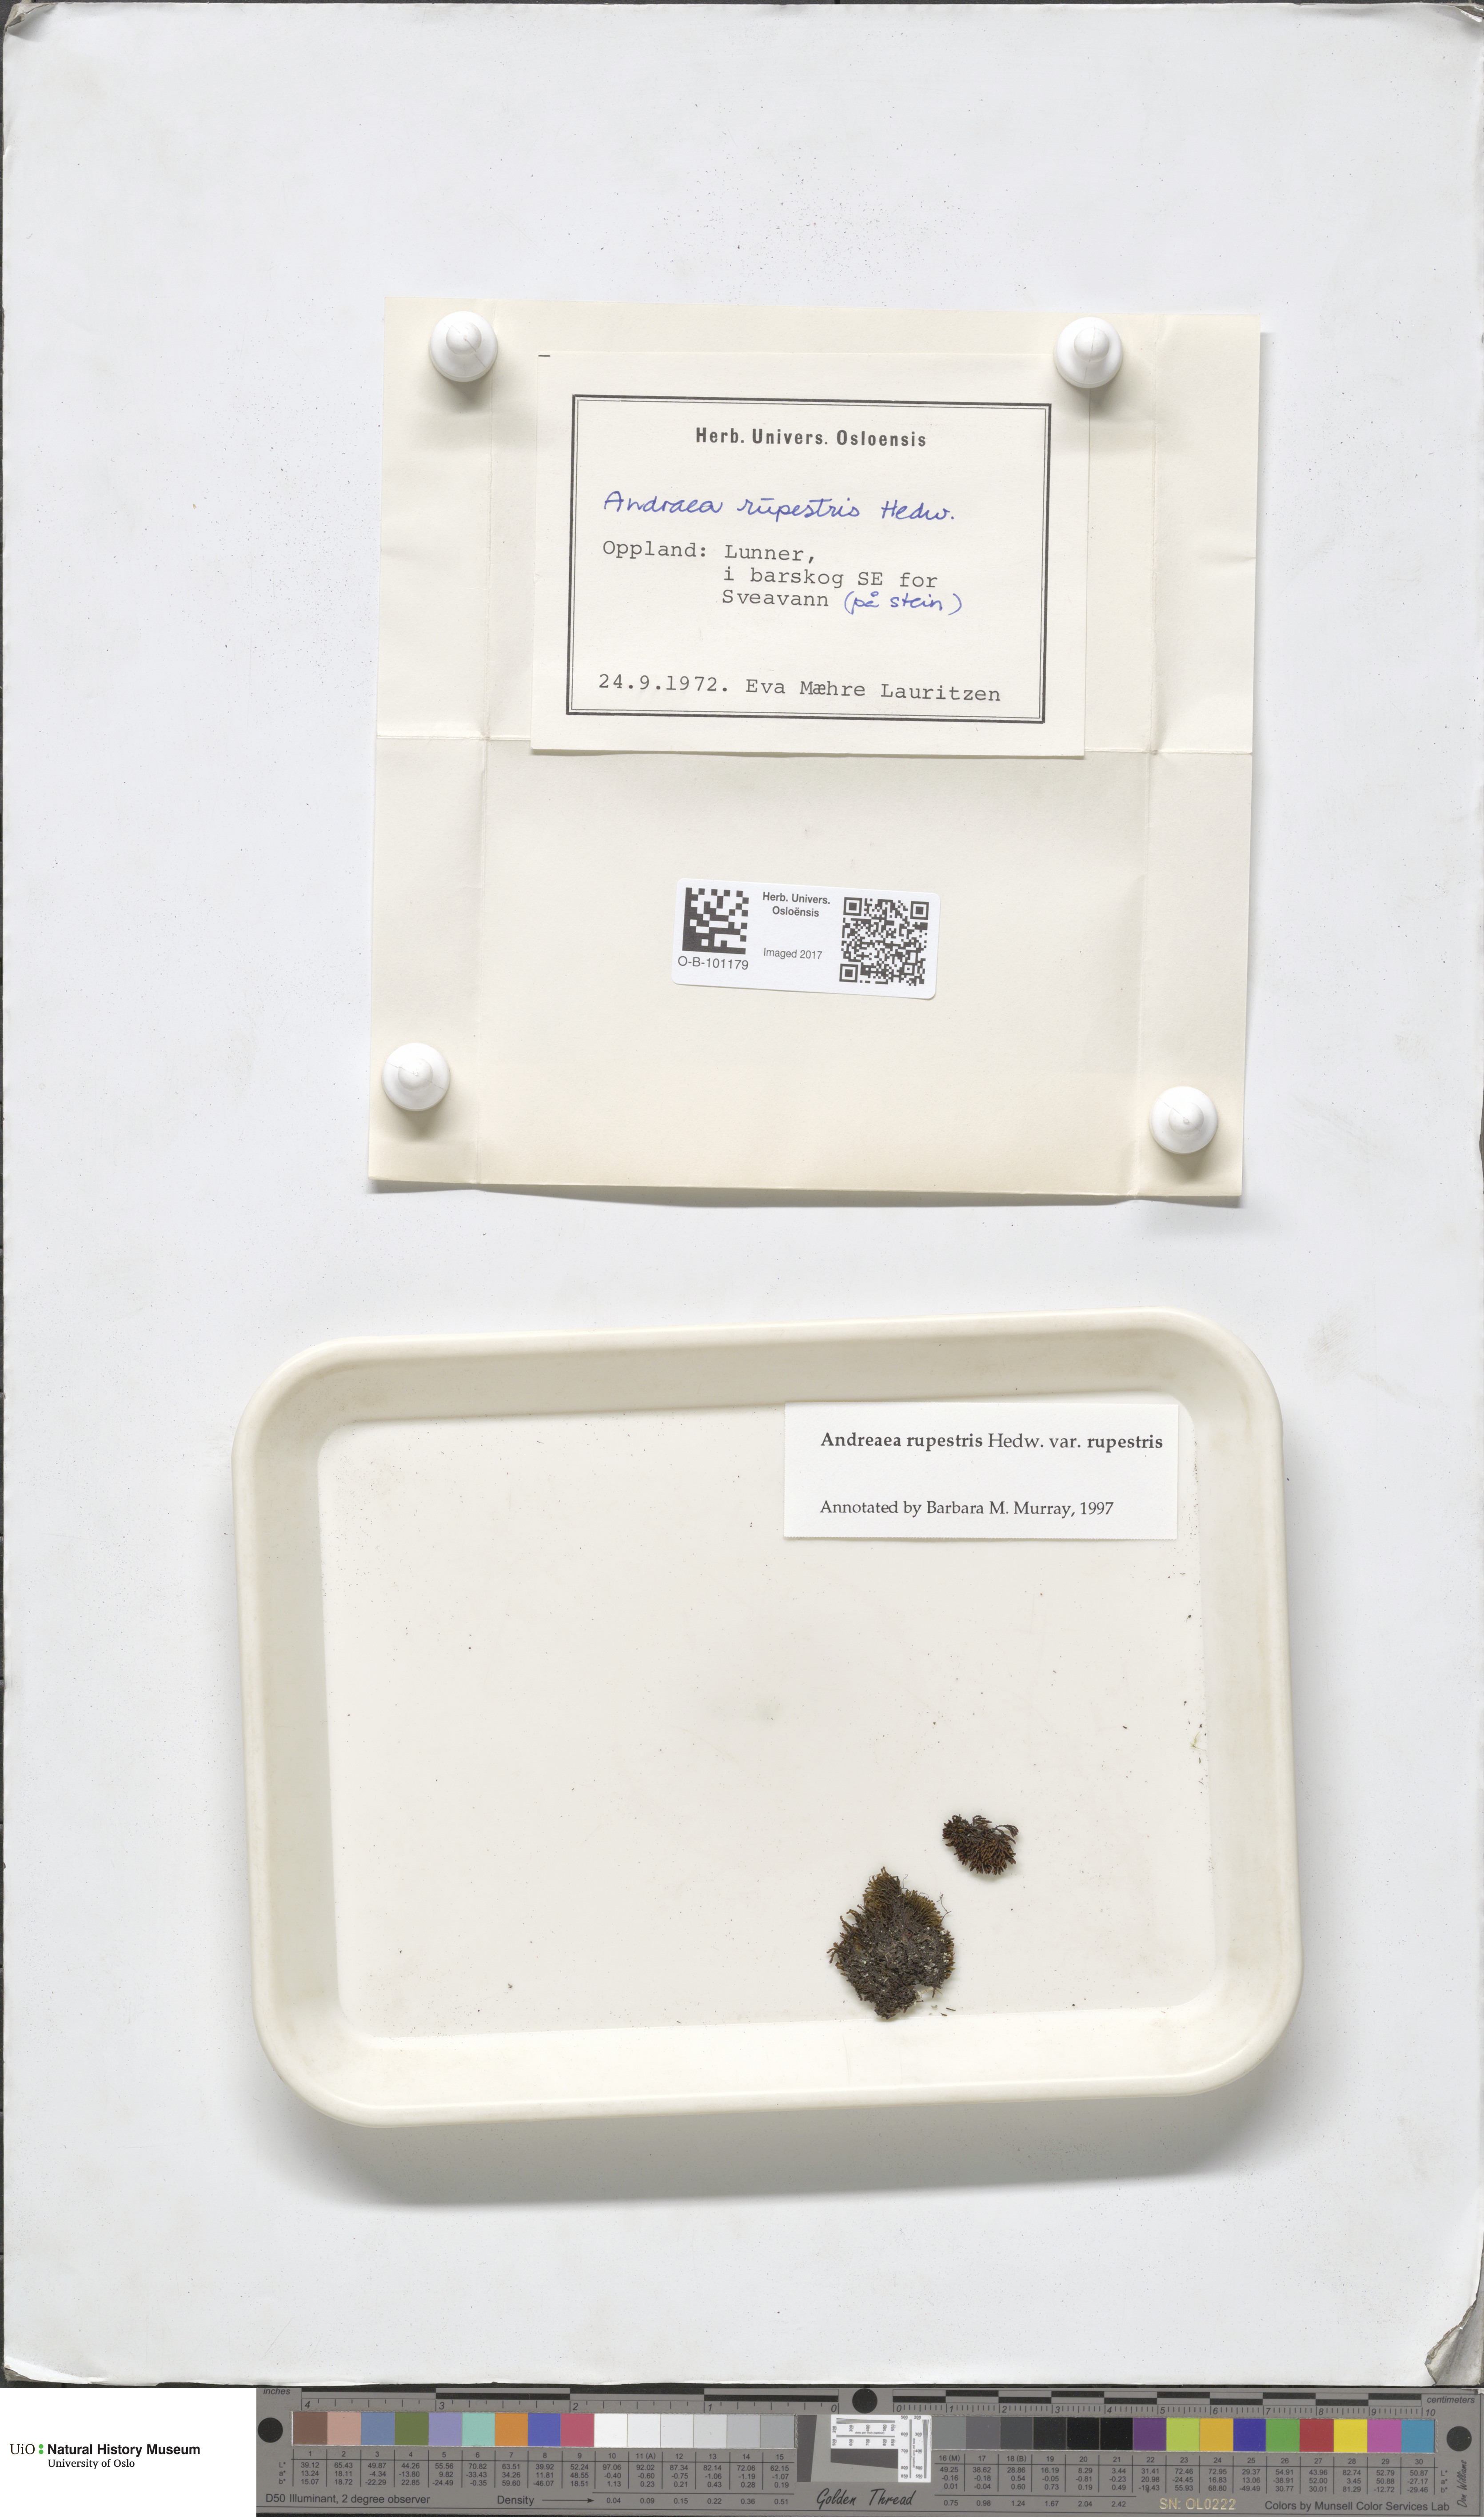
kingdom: Plantae
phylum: Bryophyta
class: Andreaeopsida
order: Andreaeales
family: Andreaeaceae
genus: Andreaea
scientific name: Andreaea rupestris
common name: Black rock moss
